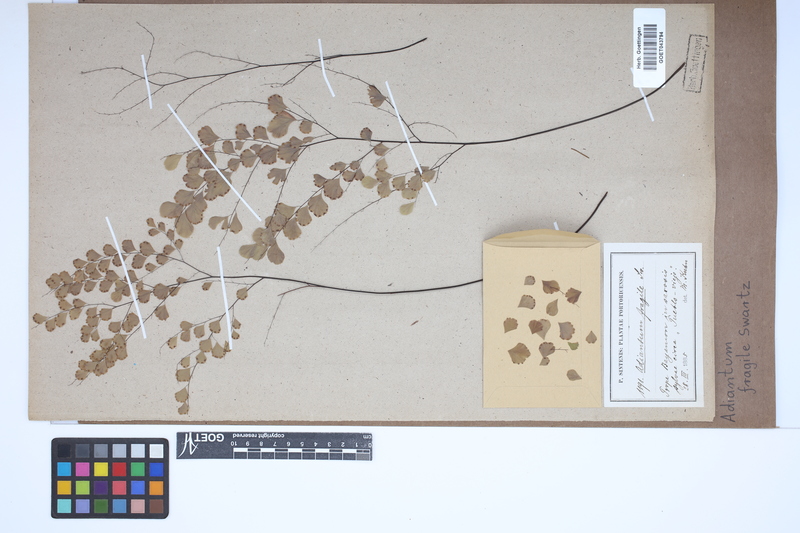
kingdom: Plantae
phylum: Tracheophyta
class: Polypodiopsida
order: Polypodiales
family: Pteridaceae
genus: Adiantum
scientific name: Adiantum fragile
